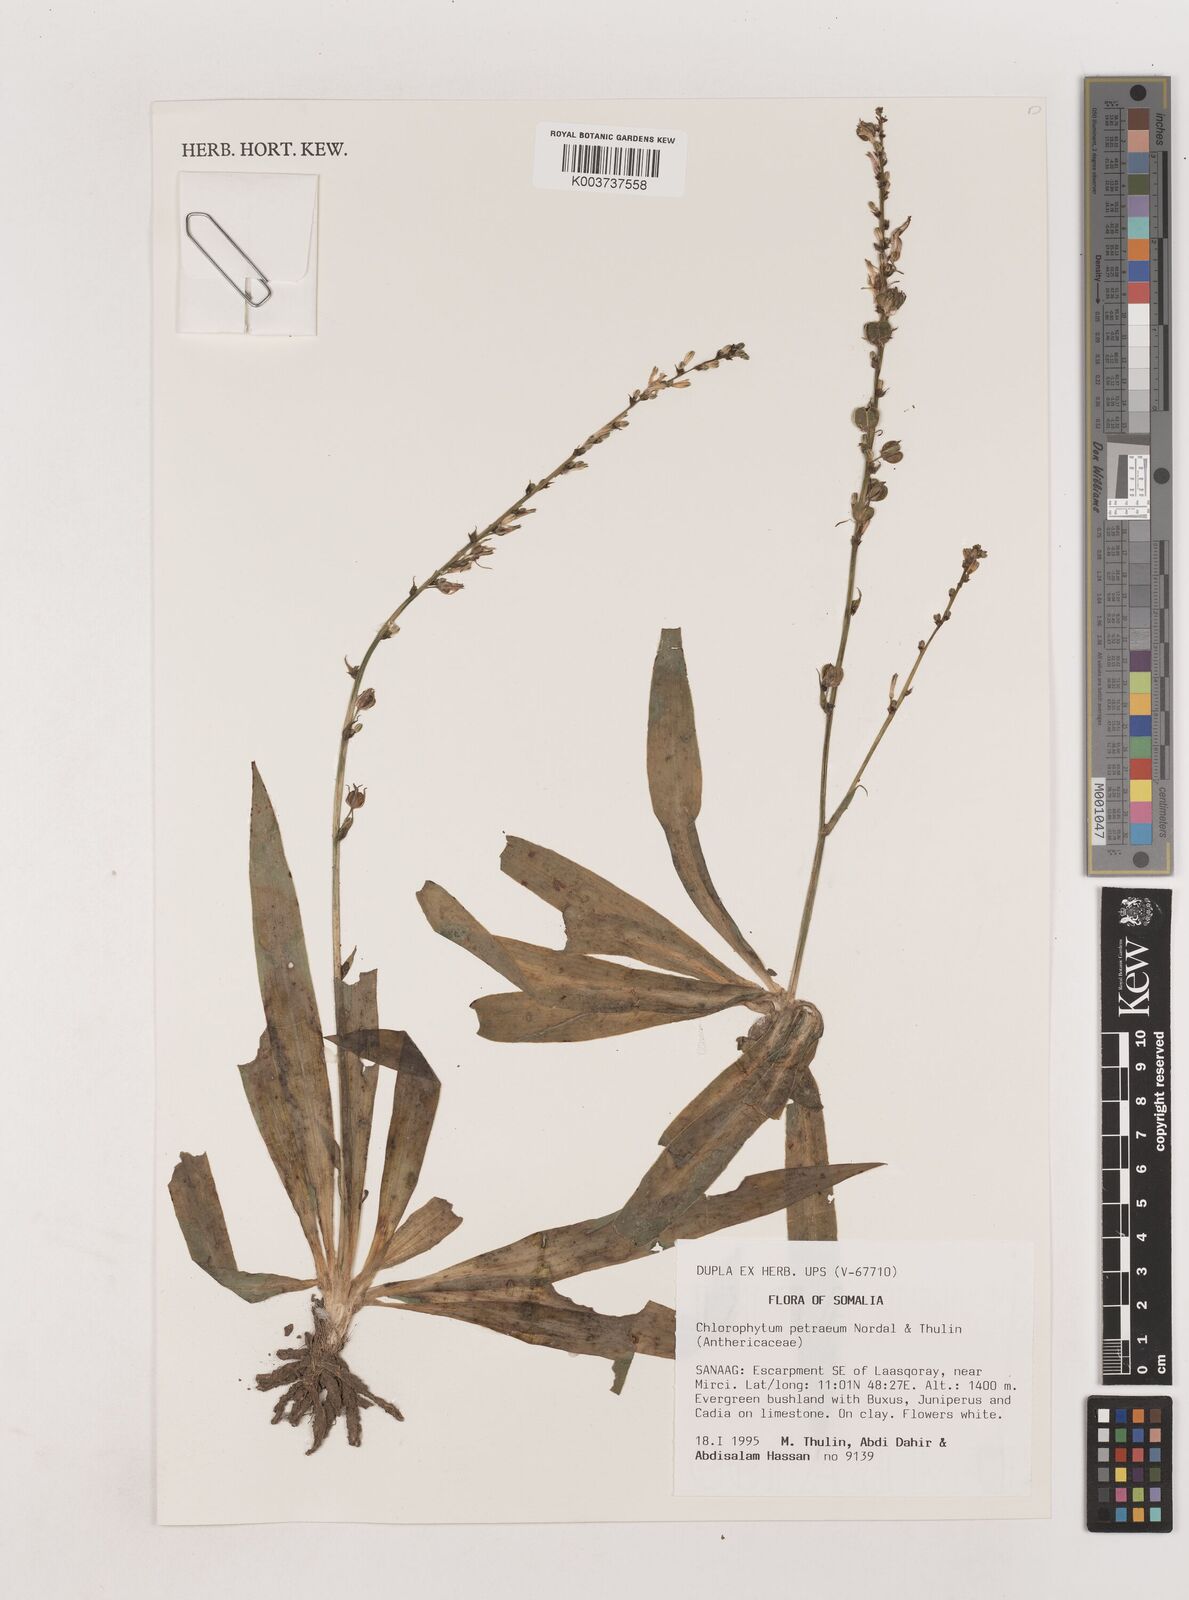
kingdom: Plantae
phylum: Tracheophyta
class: Liliopsida
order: Asparagales
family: Asparagaceae
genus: Chlorophytum
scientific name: Chlorophytum petraeum
